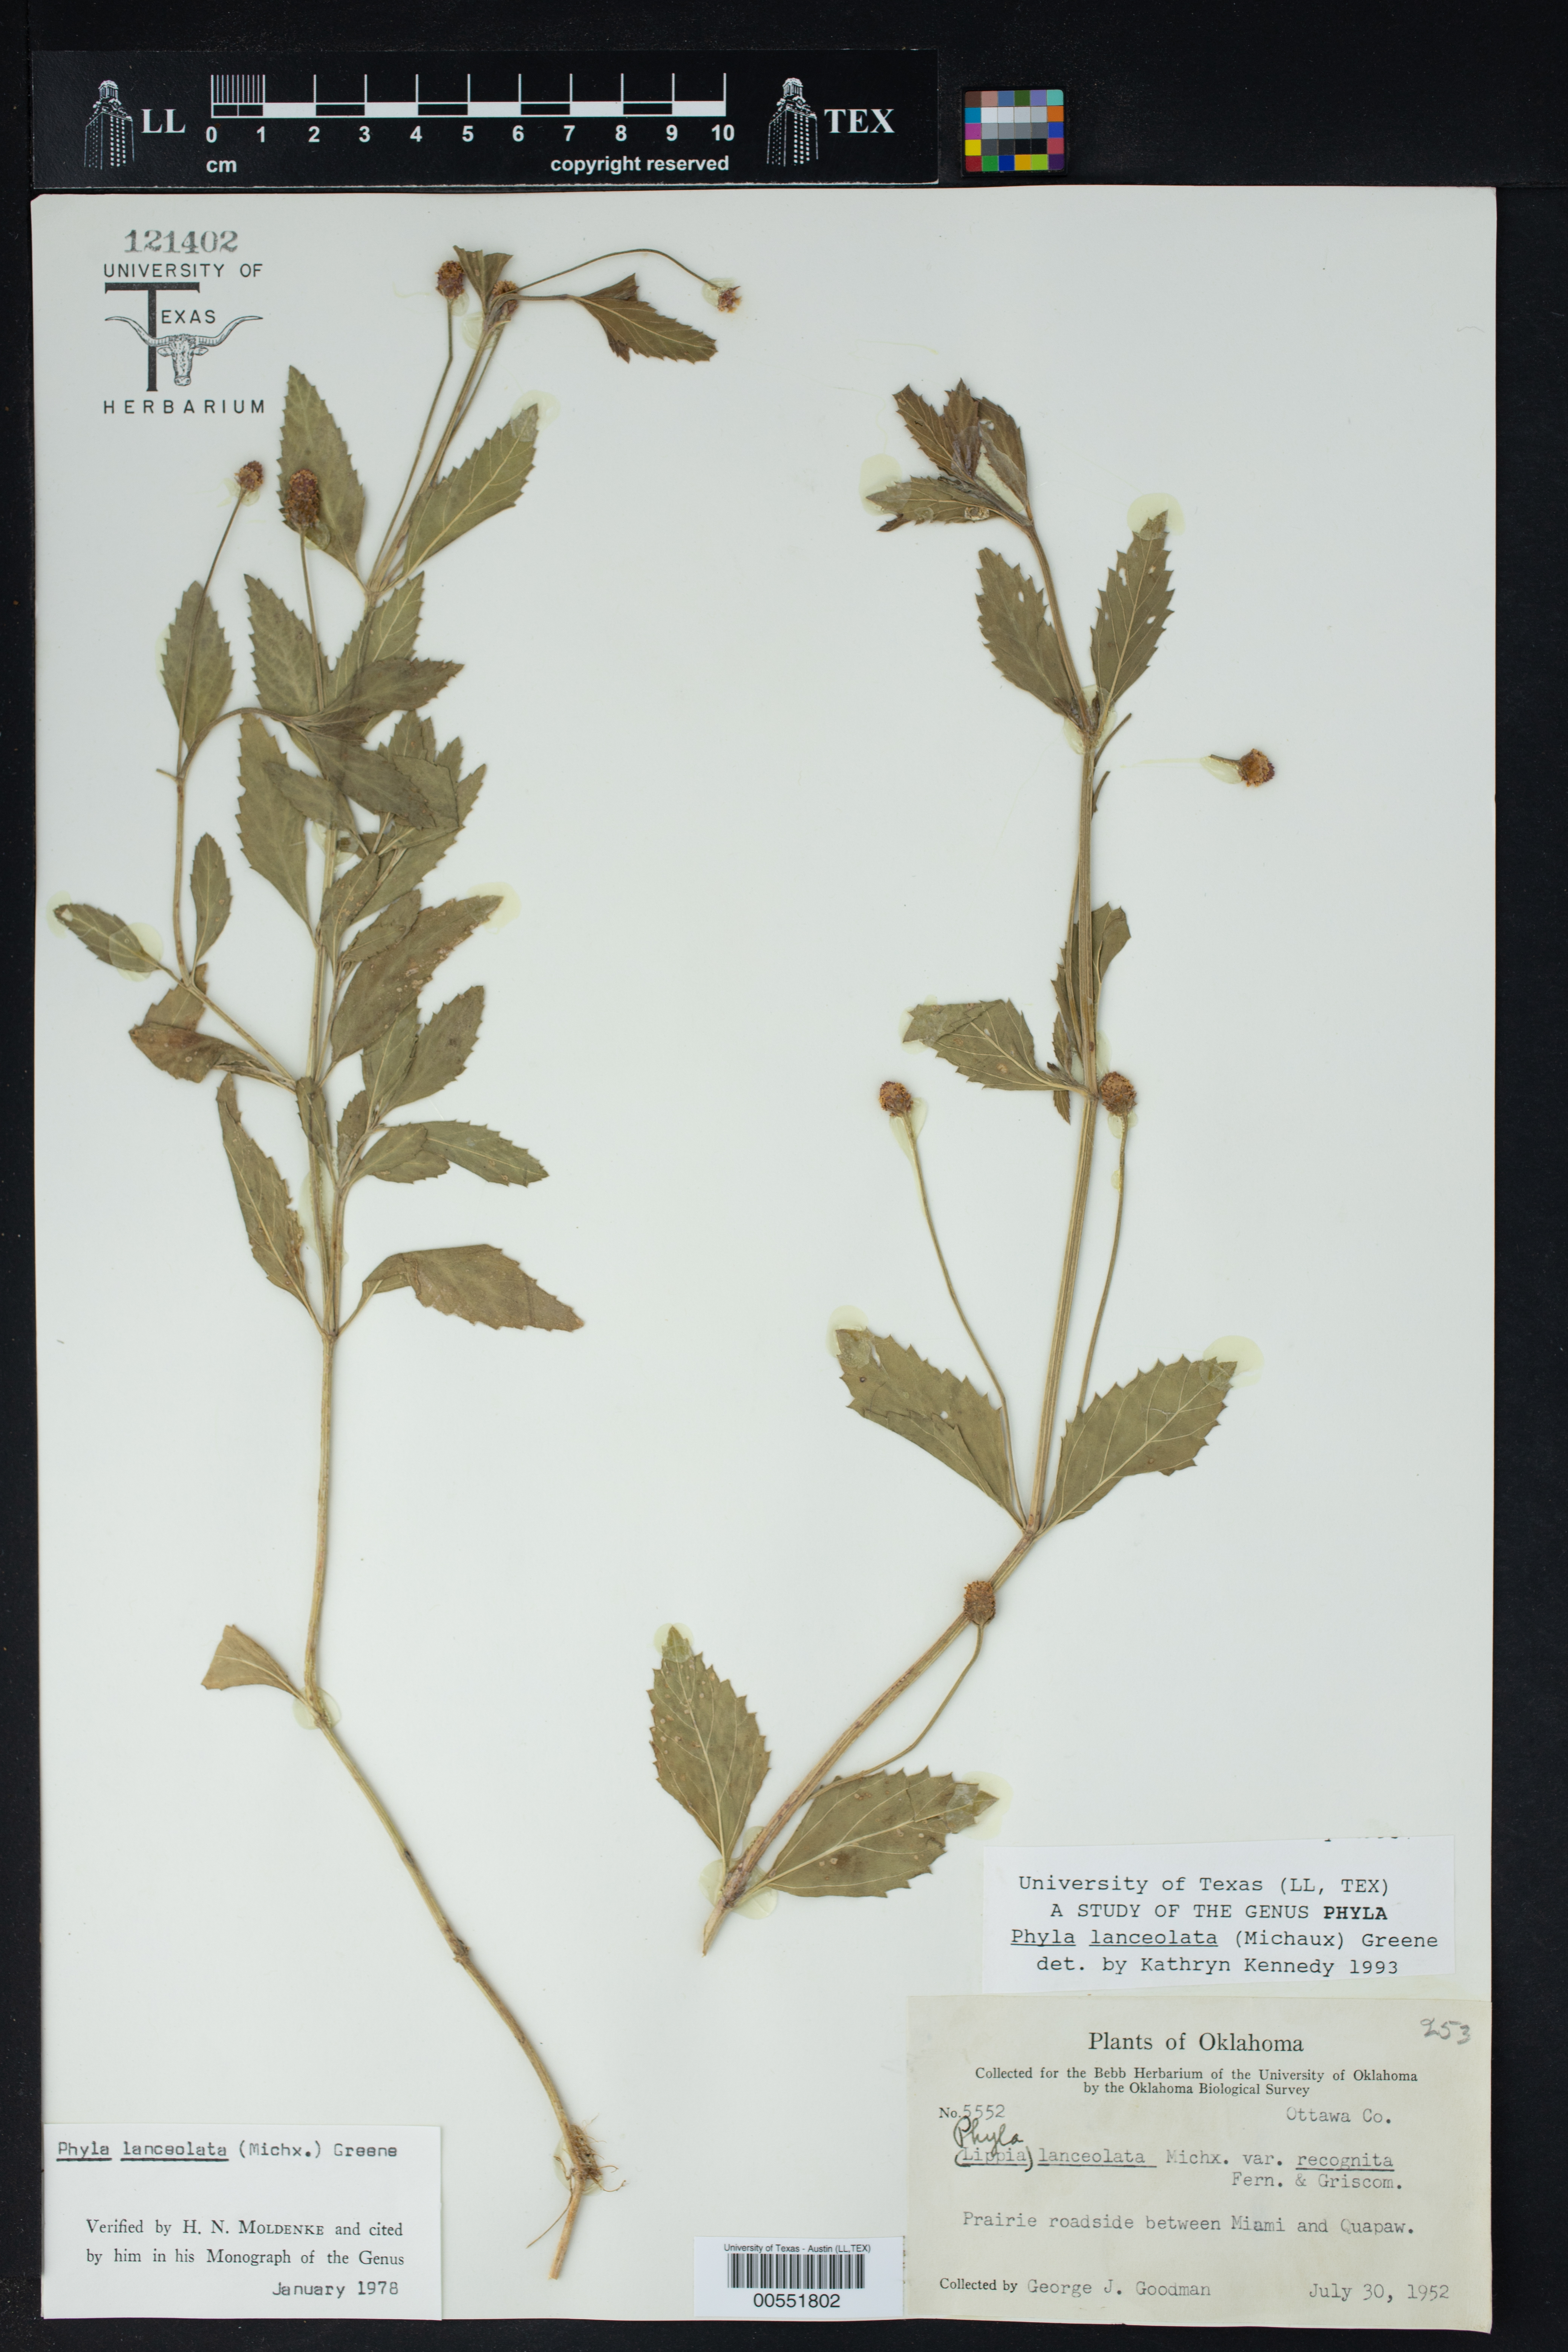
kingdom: Plantae
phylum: Tracheophyta
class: Magnoliopsida
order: Lamiales
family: Verbenaceae
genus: Phyla
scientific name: Phyla lanceolata
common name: Northern fogfruit
